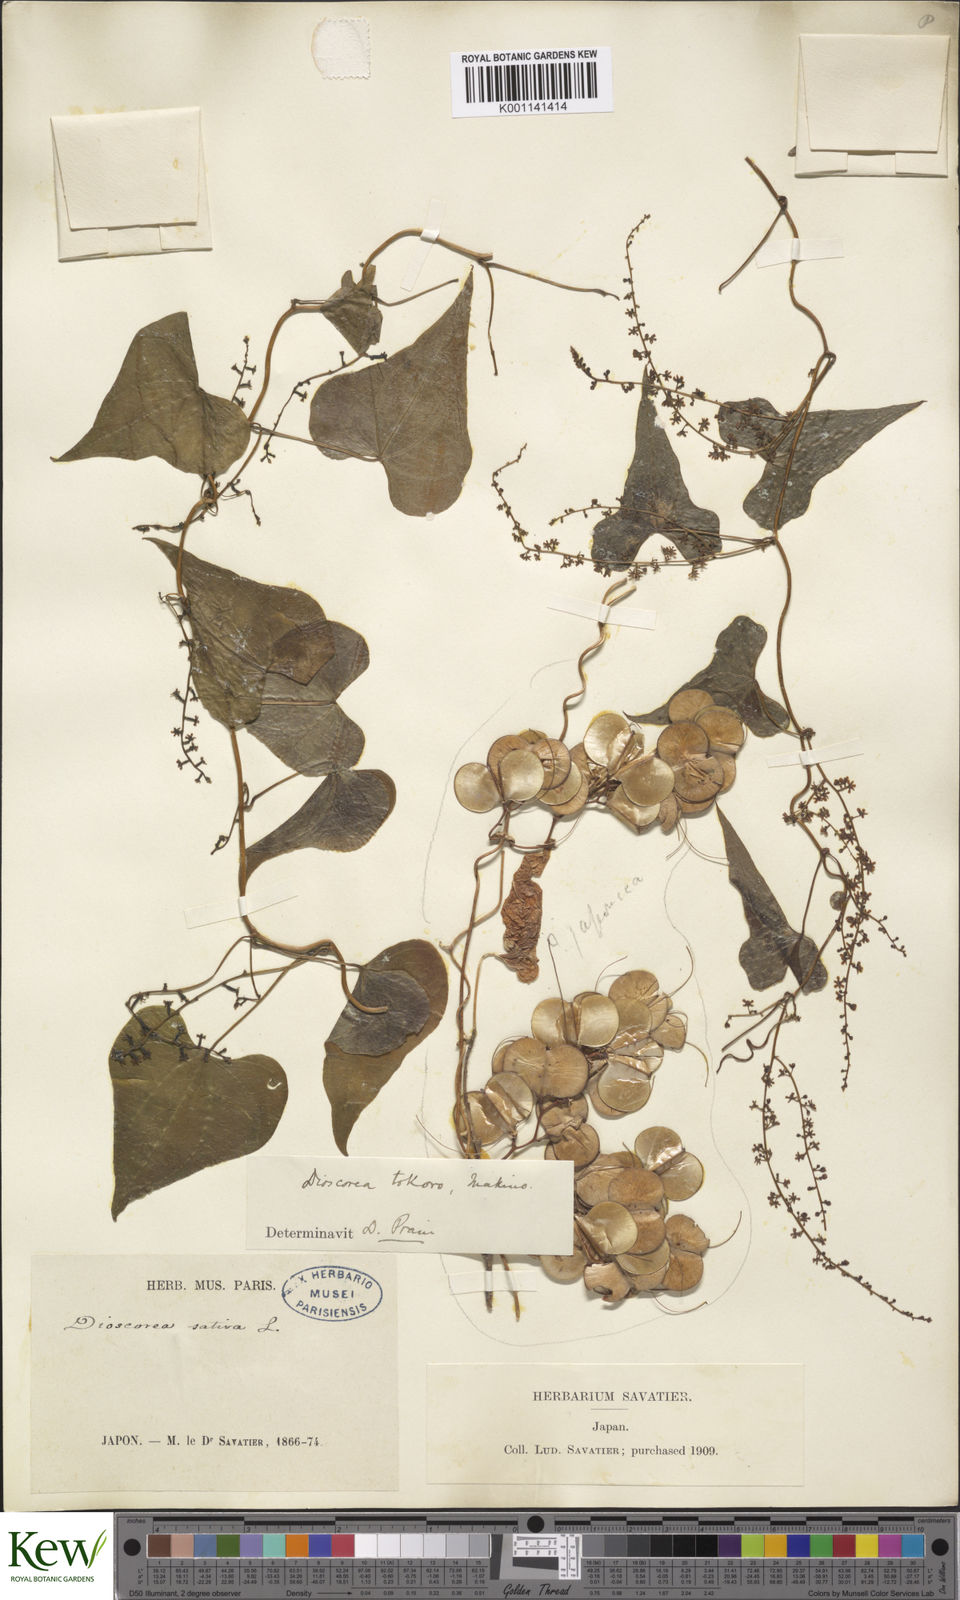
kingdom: Plantae
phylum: Tracheophyta
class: Liliopsida
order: Dioscoreales
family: Dioscoreaceae
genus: Dioscorea
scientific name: Dioscorea tokoro
